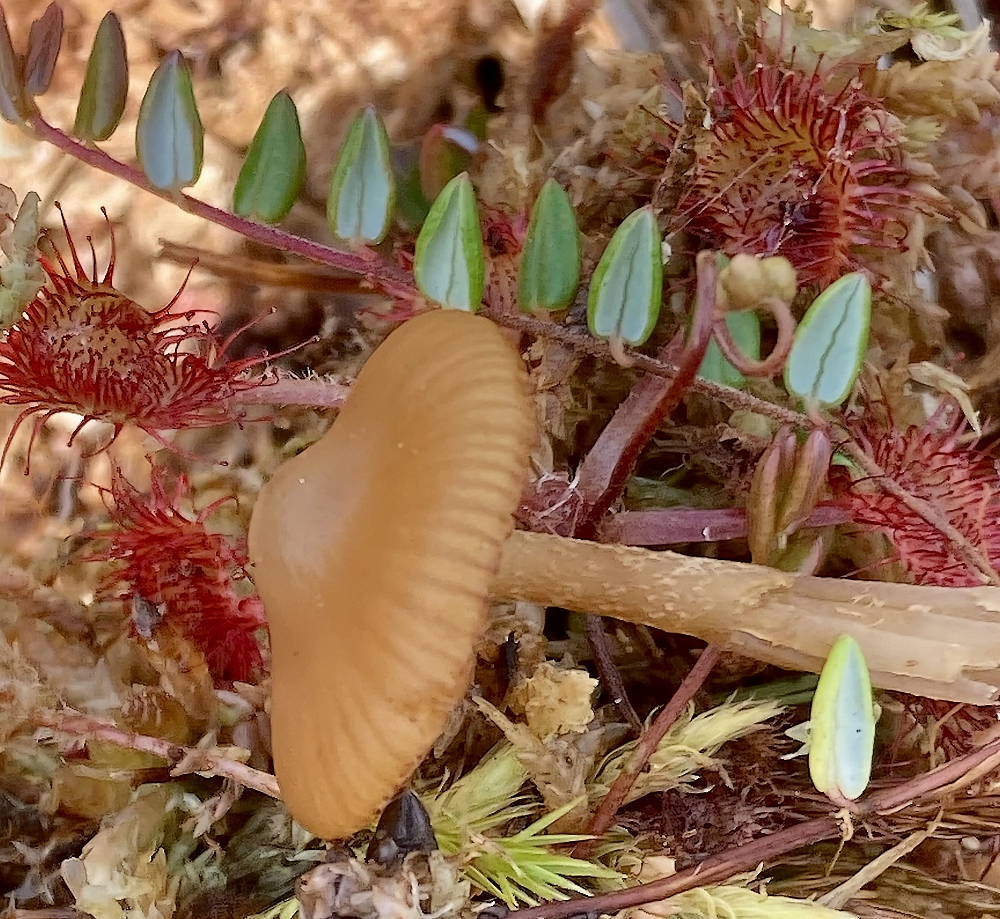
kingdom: Fungi
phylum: Basidiomycota
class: Agaricomycetes
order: Agaricales
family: Hymenogastraceae
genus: Galerina
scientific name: Galerina hybrida
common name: hængesæk-hjelmhat
